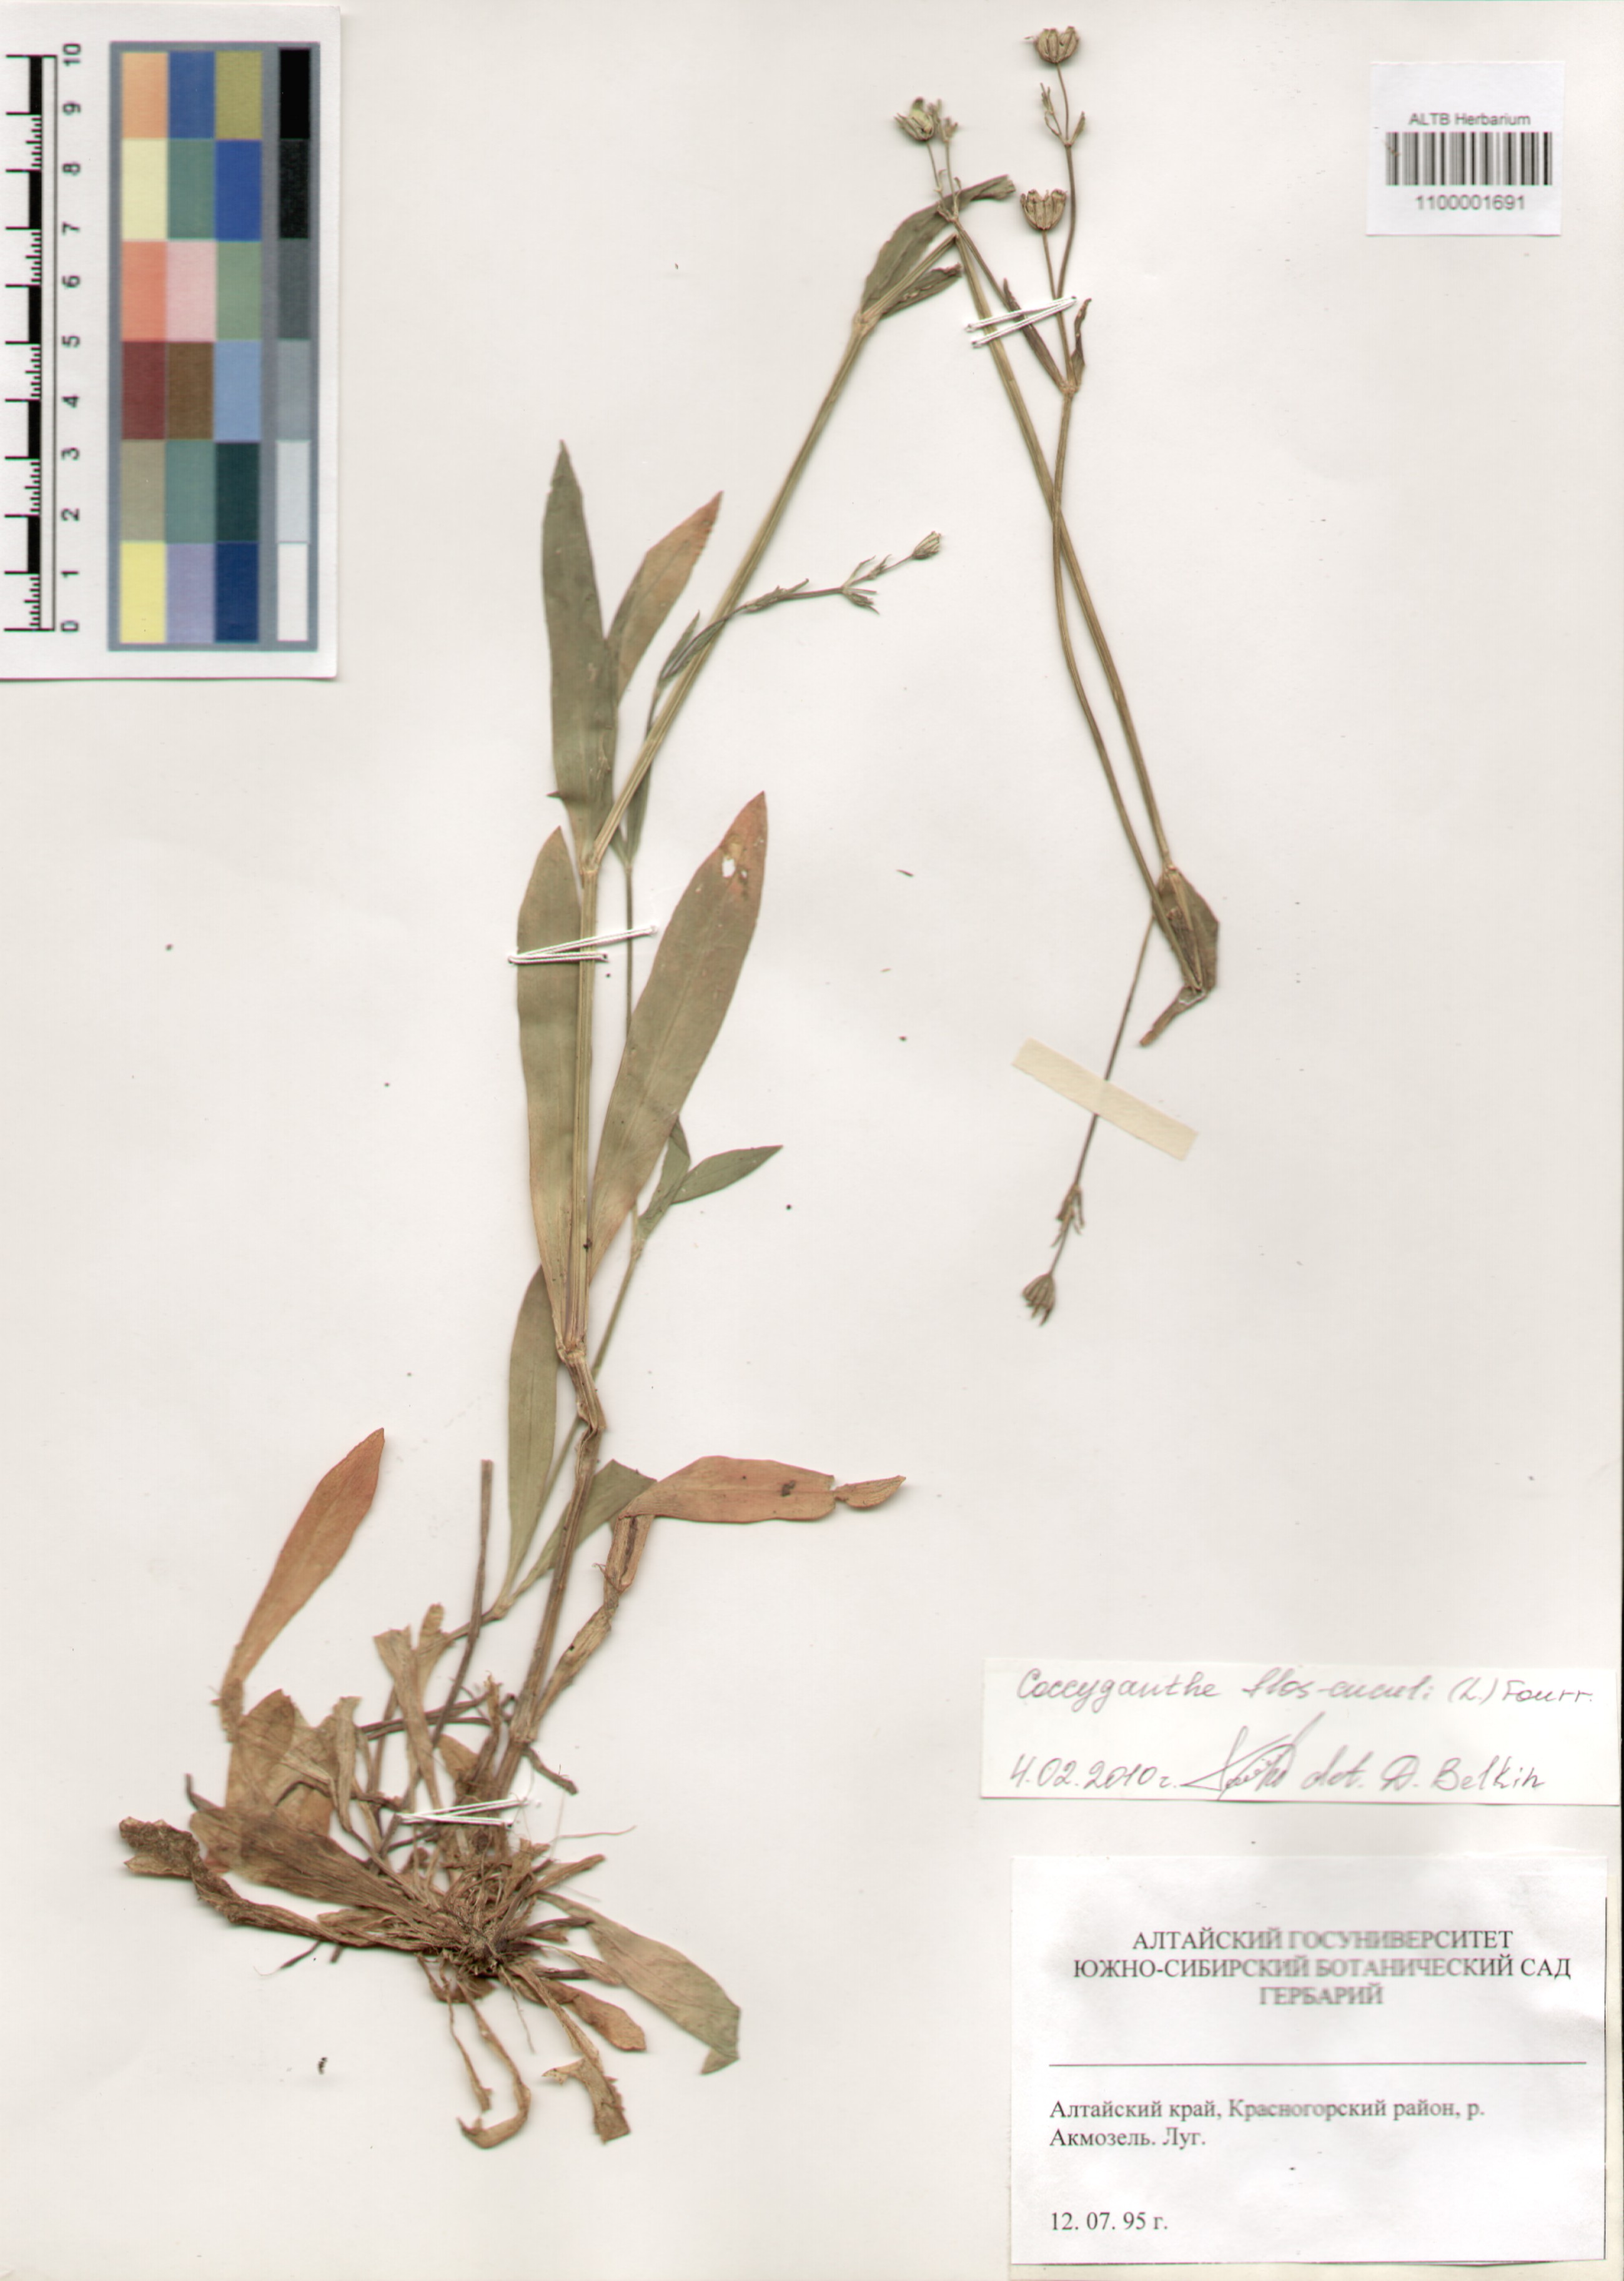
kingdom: Plantae
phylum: Tracheophyta
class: Magnoliopsida
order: Caryophyllales
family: Caryophyllaceae
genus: Silene
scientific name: Silene flos-cuculi
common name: Ragged-robin
